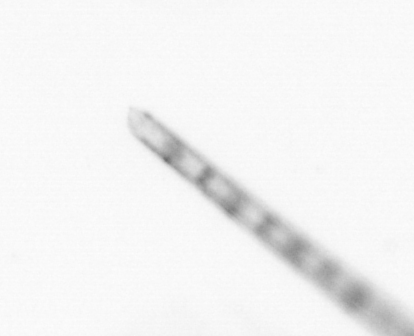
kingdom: Chromista
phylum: Ochrophyta
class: Bacillariophyceae
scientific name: Bacillariophyceae
